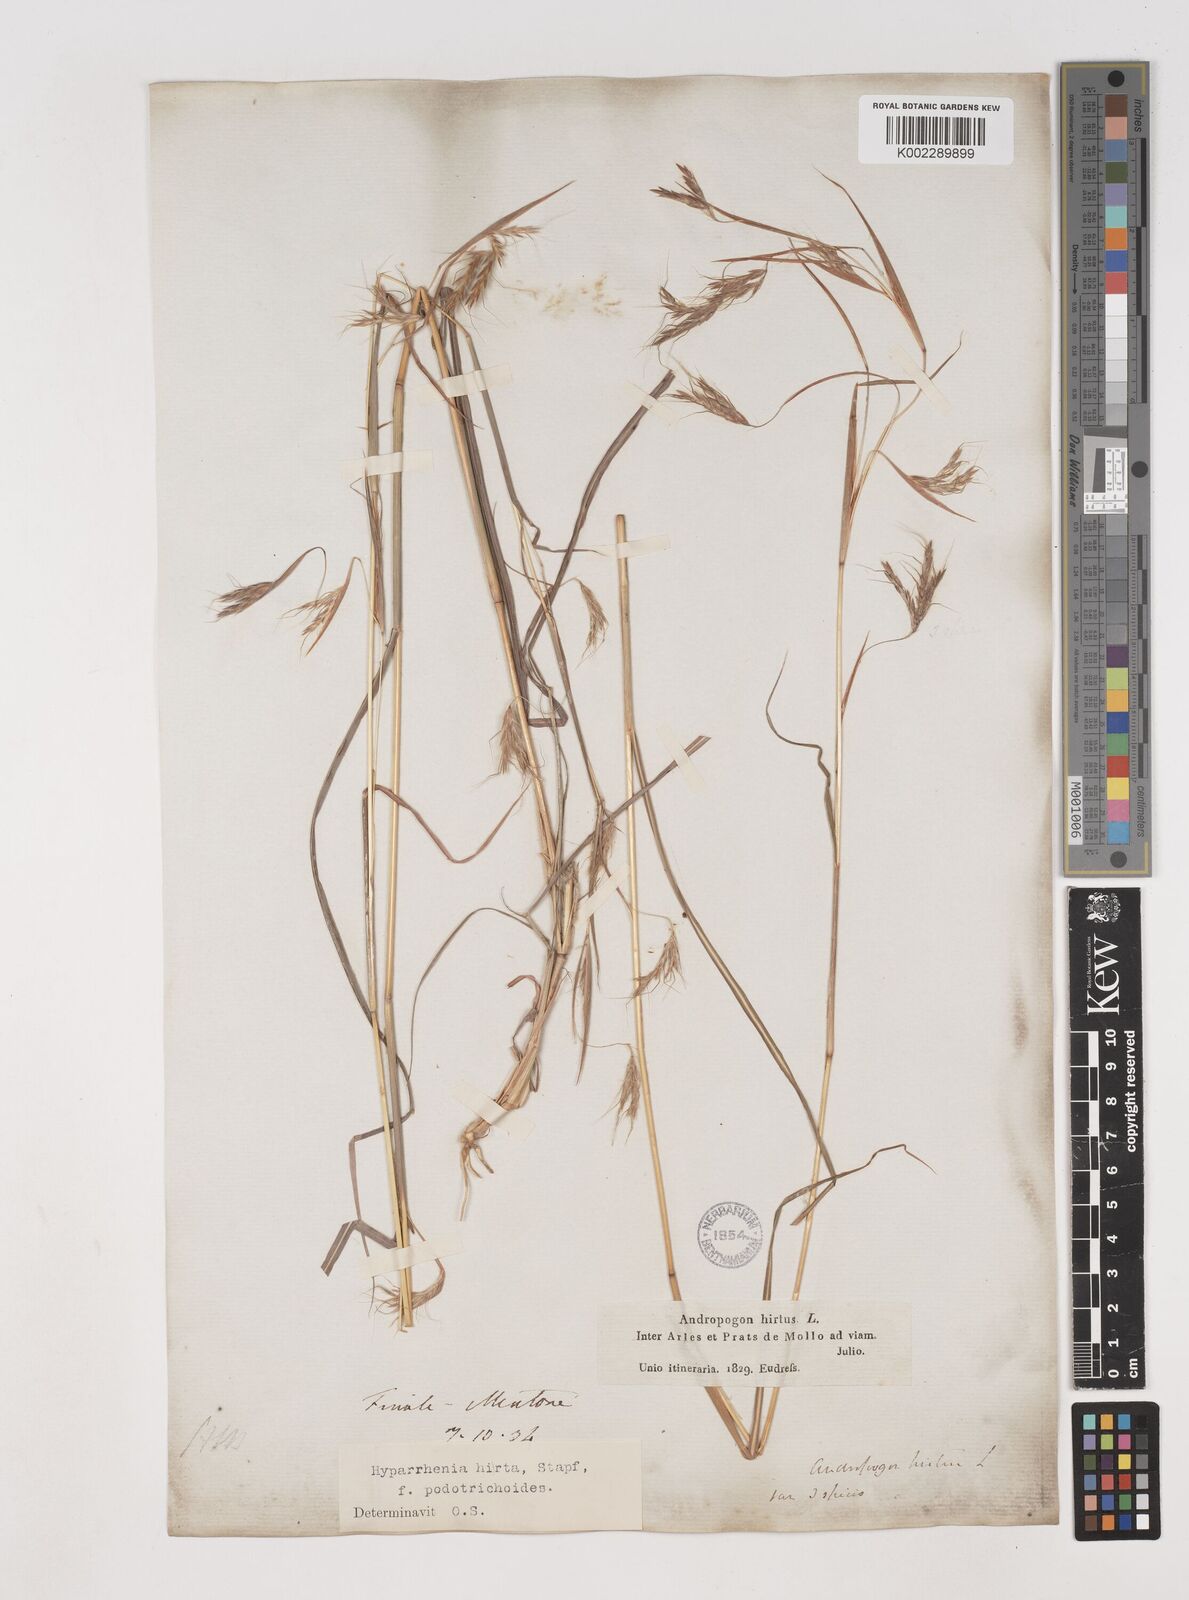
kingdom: Plantae
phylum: Tracheophyta
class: Liliopsida
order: Poales
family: Poaceae
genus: Hyparrhenia
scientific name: Hyparrhenia hirta
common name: Thatching grass
